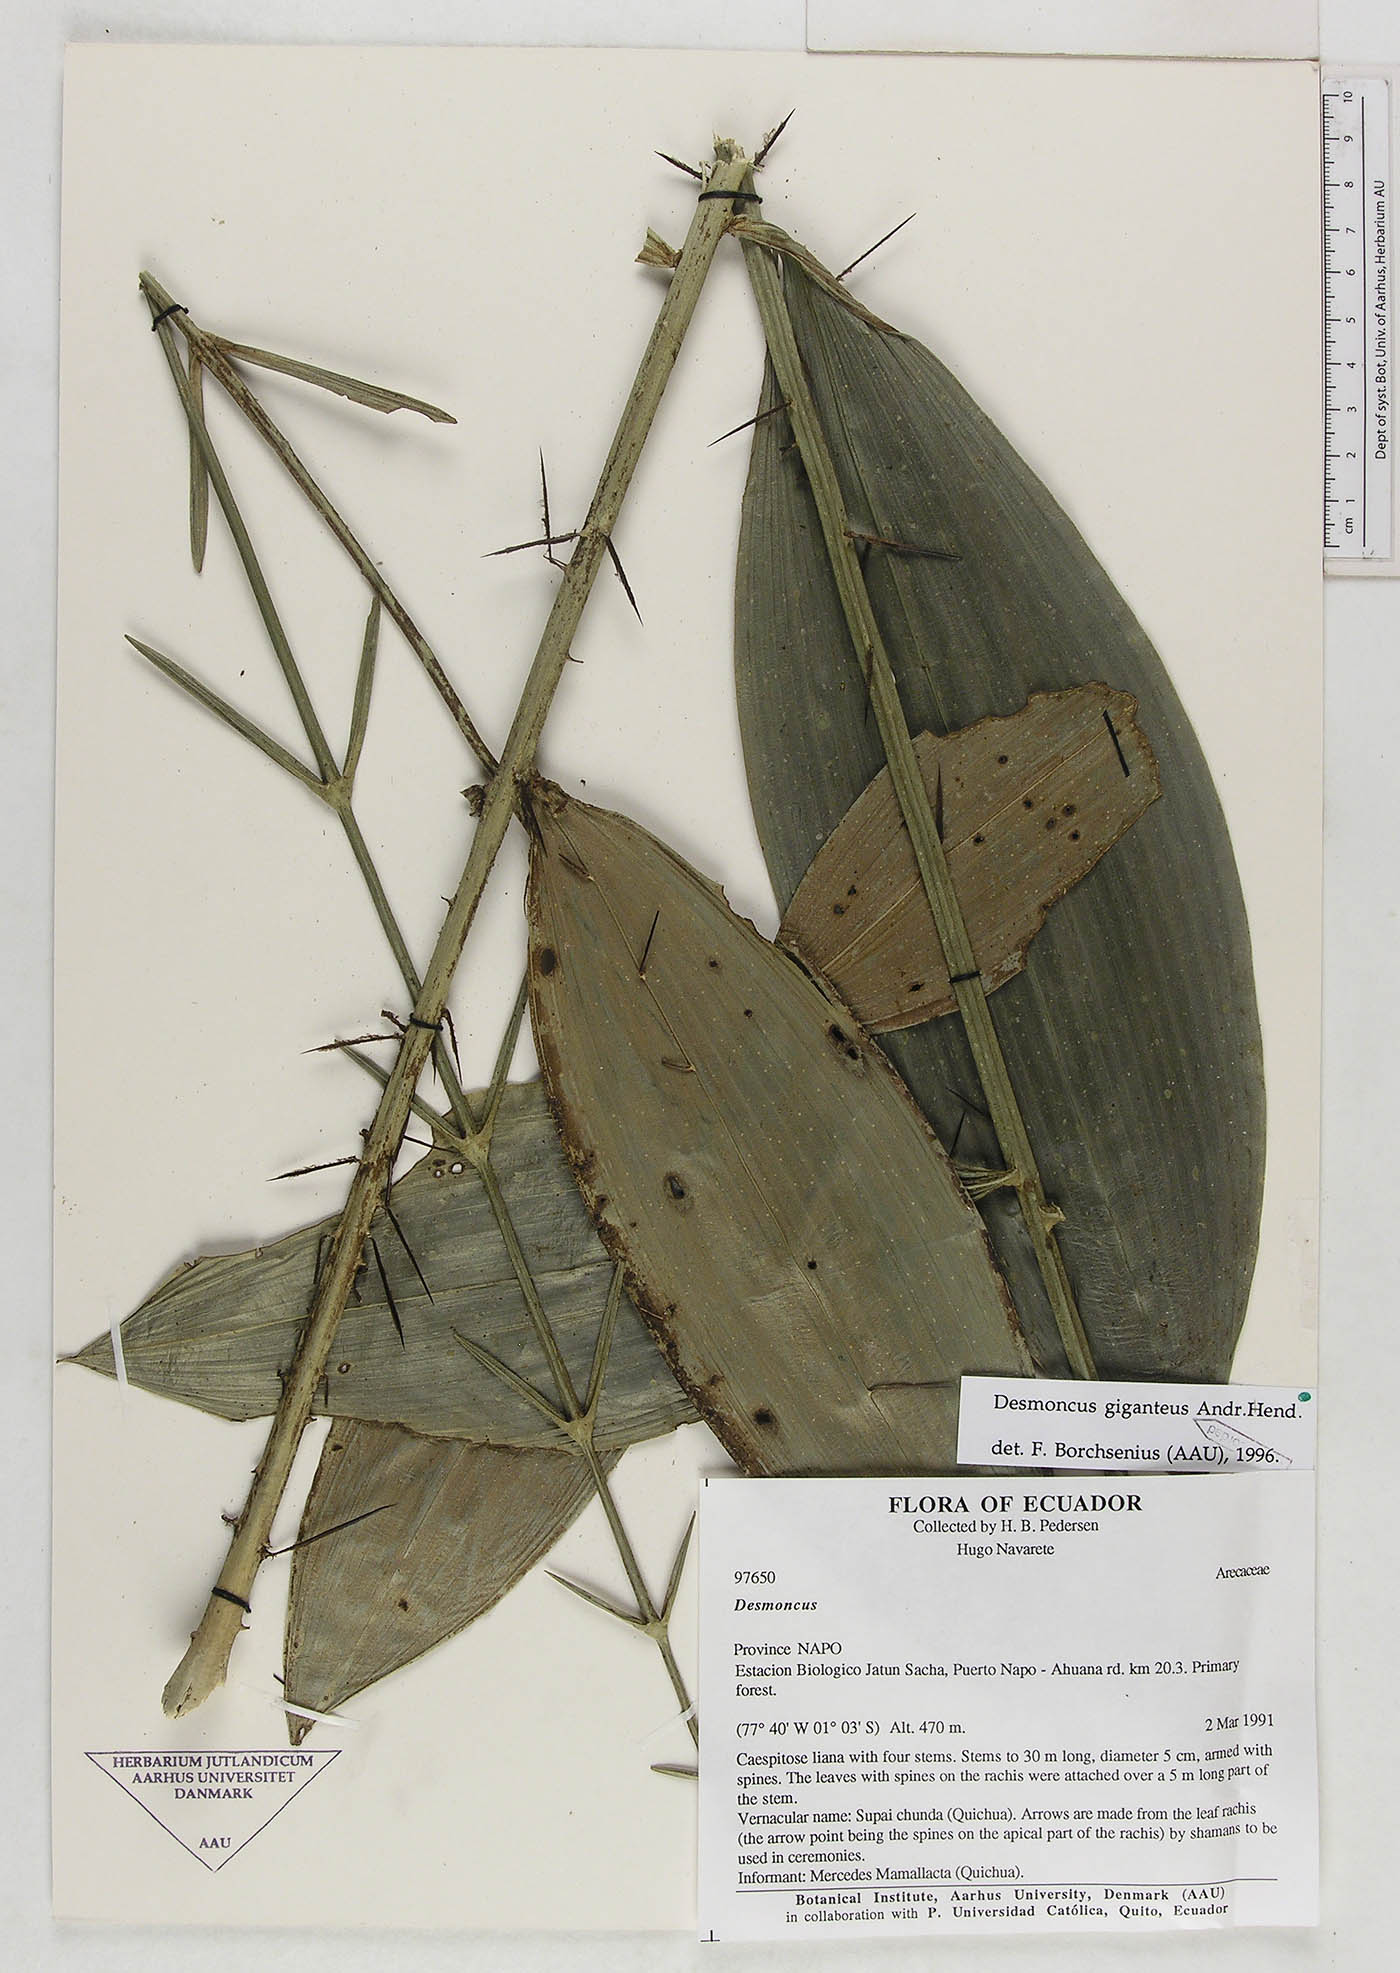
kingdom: Plantae
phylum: Tracheophyta
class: Liliopsida
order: Arecales
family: Arecaceae
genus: Desmoncus
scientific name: Desmoncus giganteus
